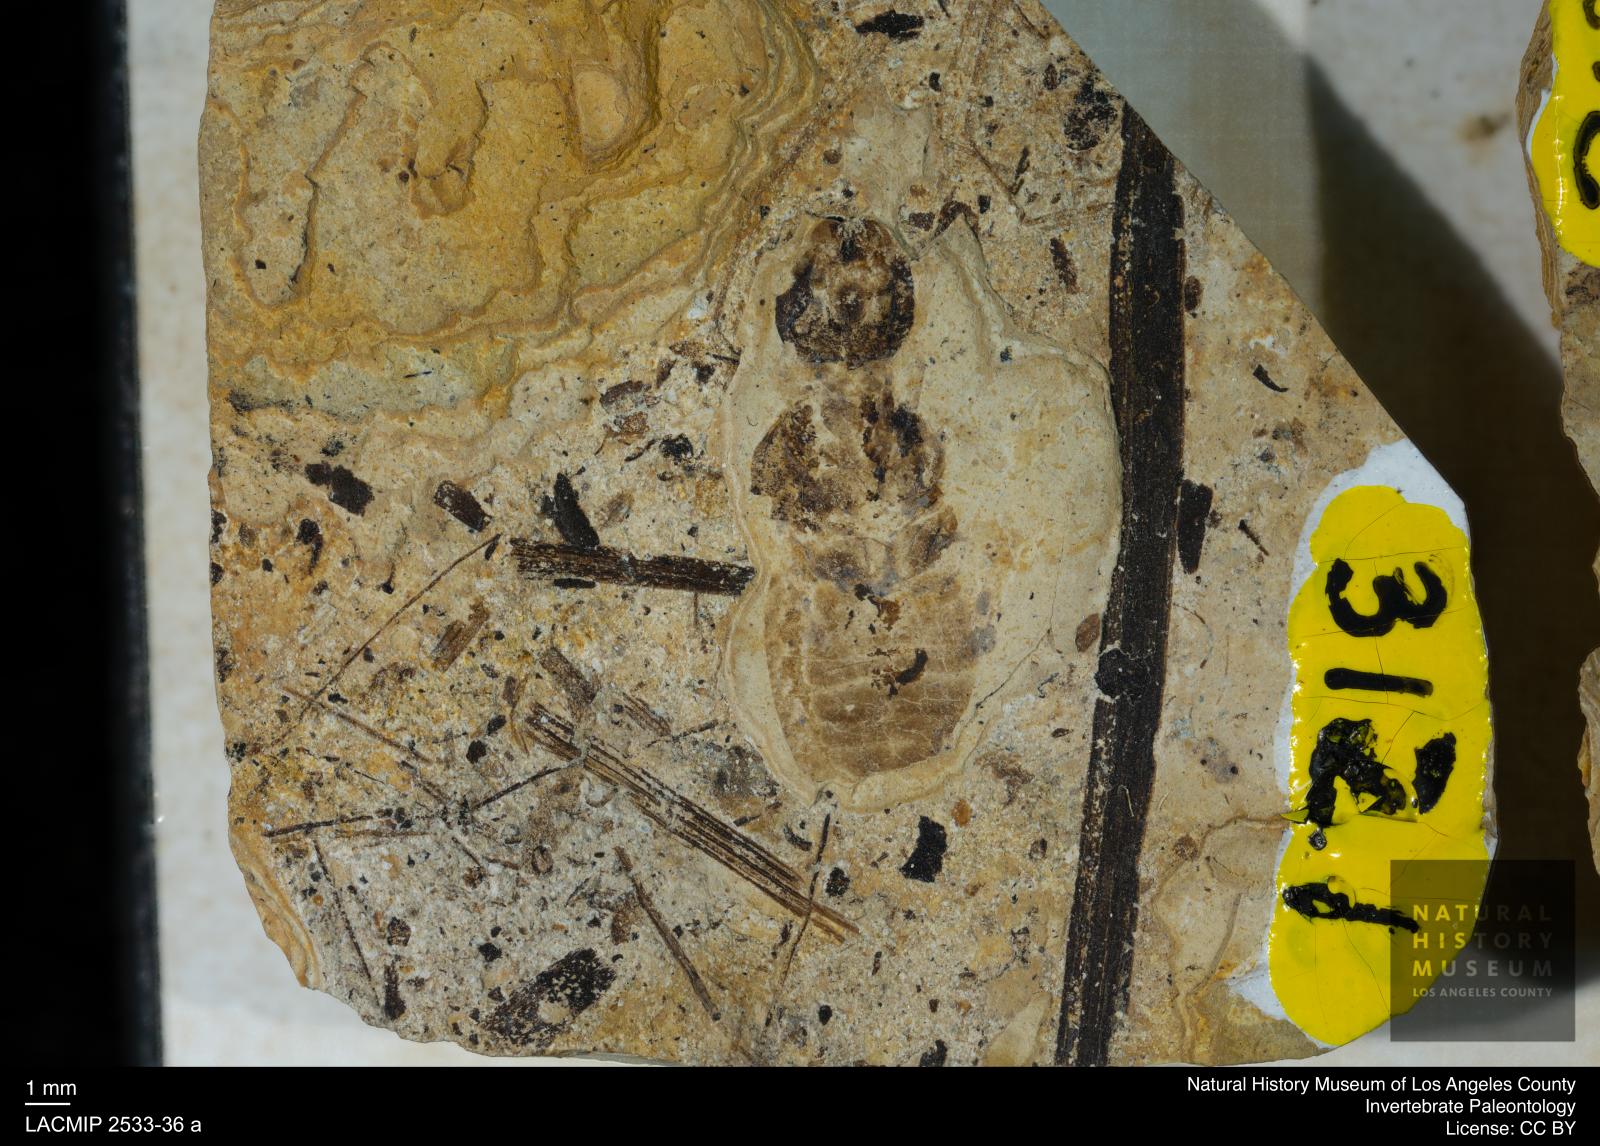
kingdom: Animalia
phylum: Arthropoda
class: Insecta
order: Blattodea
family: Hodotermitidae
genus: Ulmeriella
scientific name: Ulmeriella bauckhorni
